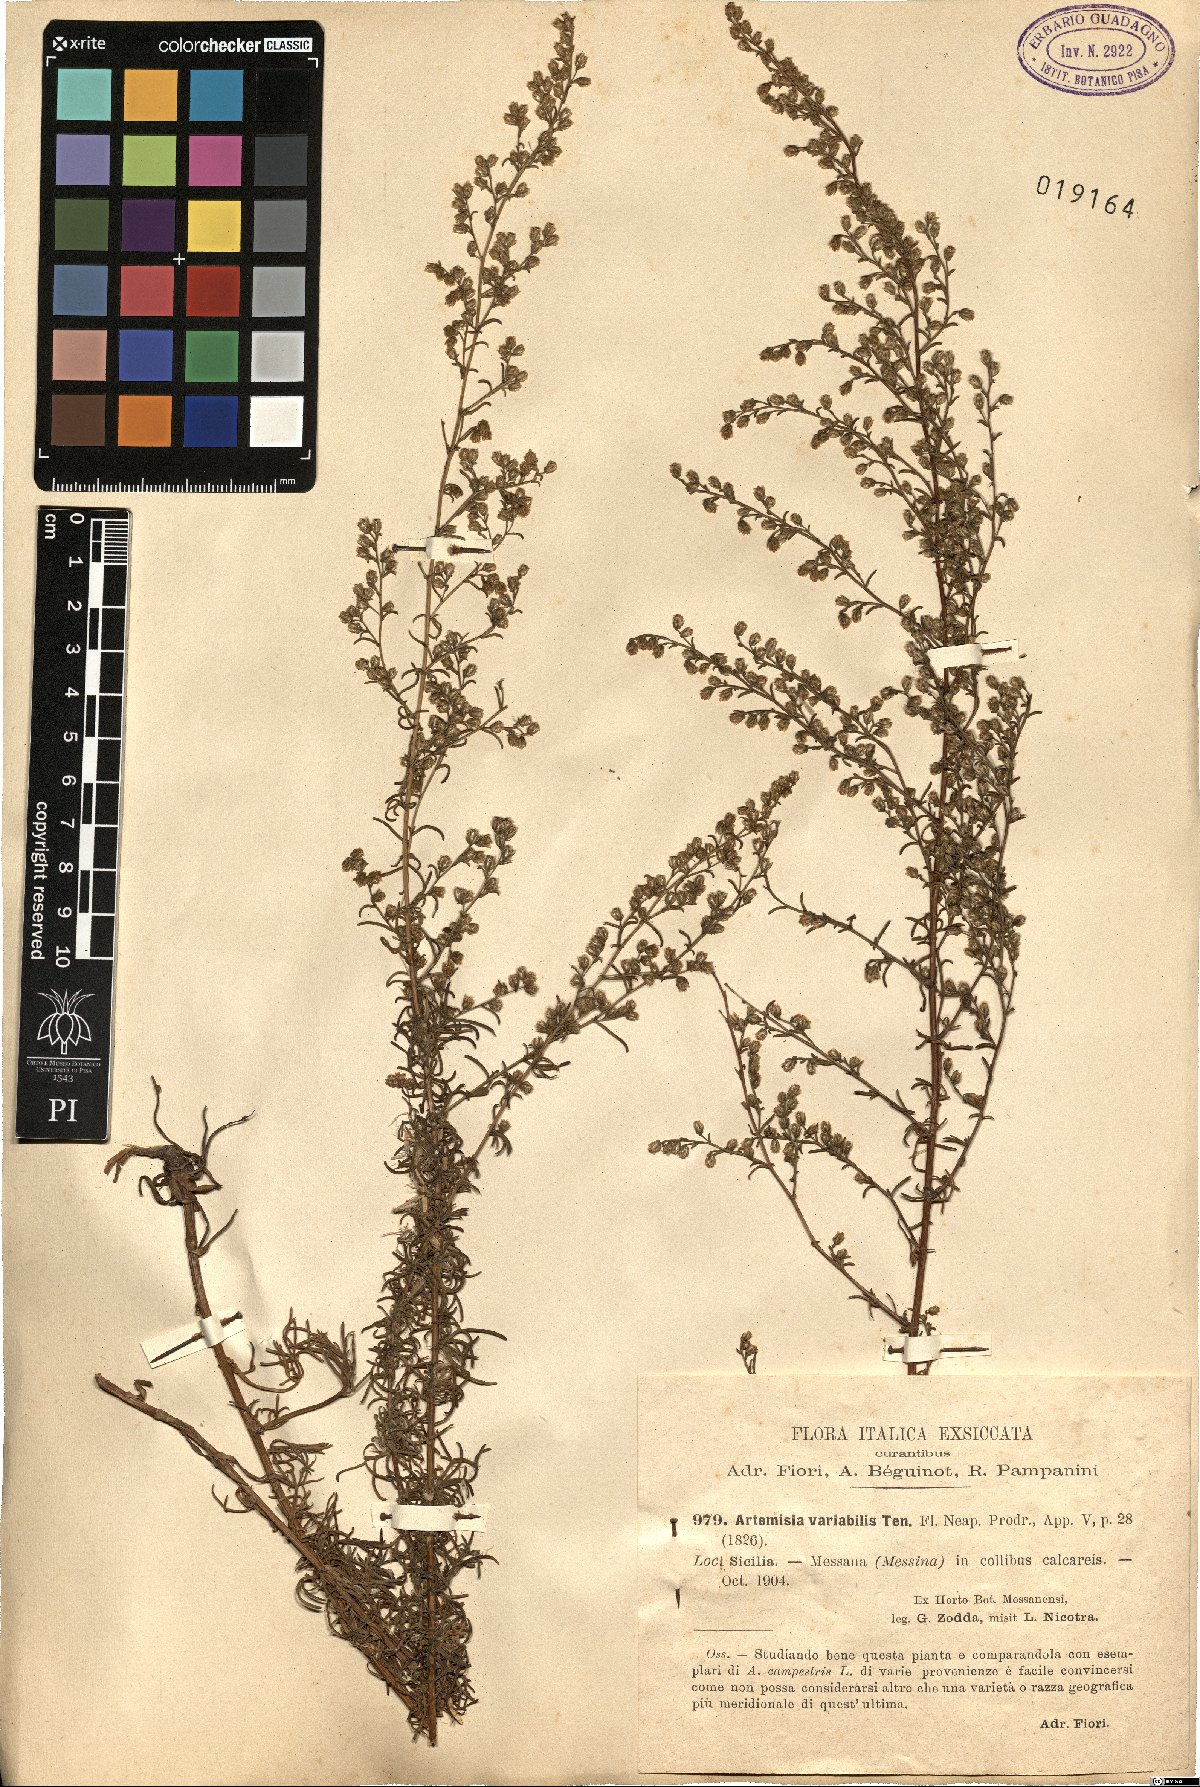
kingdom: Plantae
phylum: Tracheophyta
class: Magnoliopsida
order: Asterales
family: Asteraceae
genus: Artemisia
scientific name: Artemisia campestris
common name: Field wormwood
